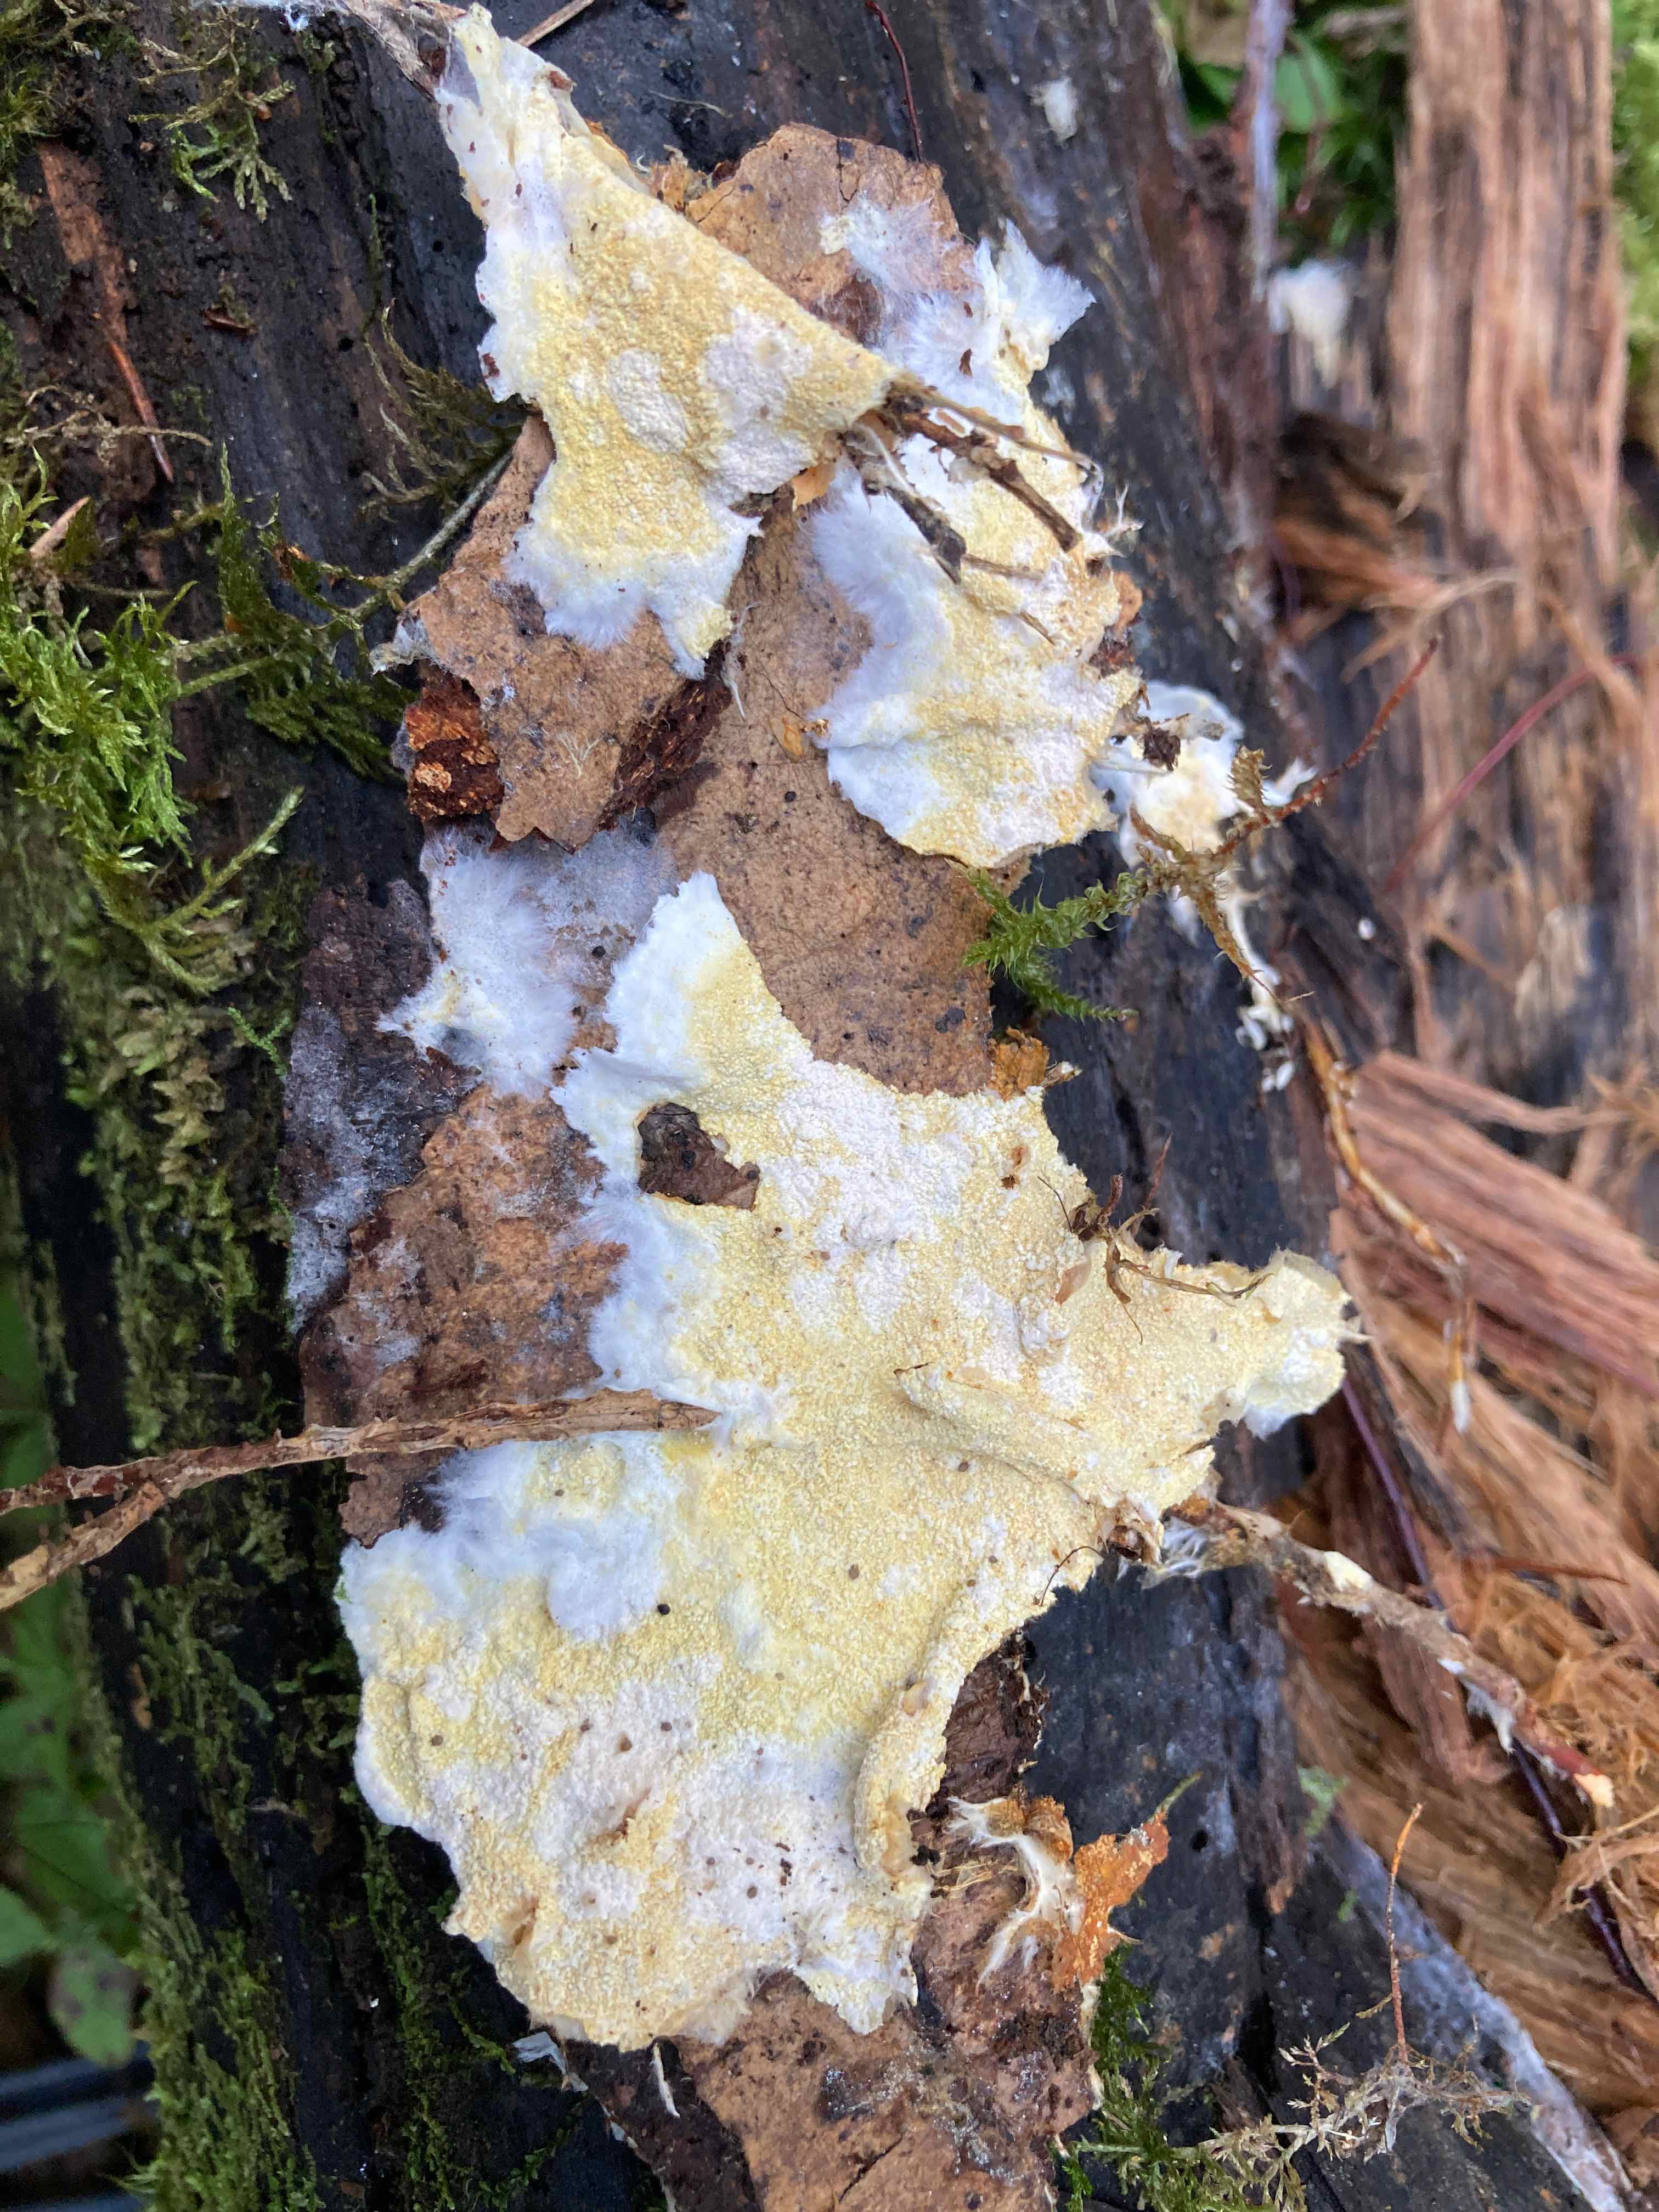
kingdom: Fungi
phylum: Basidiomycota
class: Agaricomycetes
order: Atheliales
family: Atheliaceae
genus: Piloderma
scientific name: Piloderma byssinum
